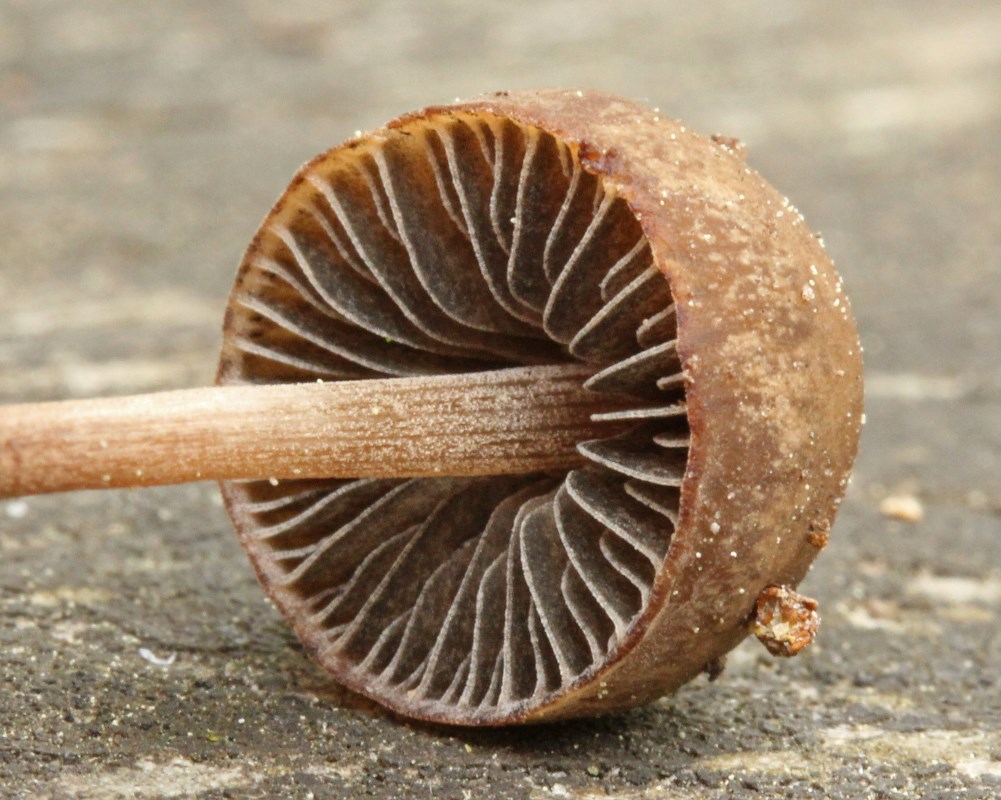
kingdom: Fungi
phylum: Basidiomycota
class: Agaricomycetes
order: Agaricales
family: Bolbitiaceae
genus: Panaeolus
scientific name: Panaeolus fimicola
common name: tidlig glanshat
